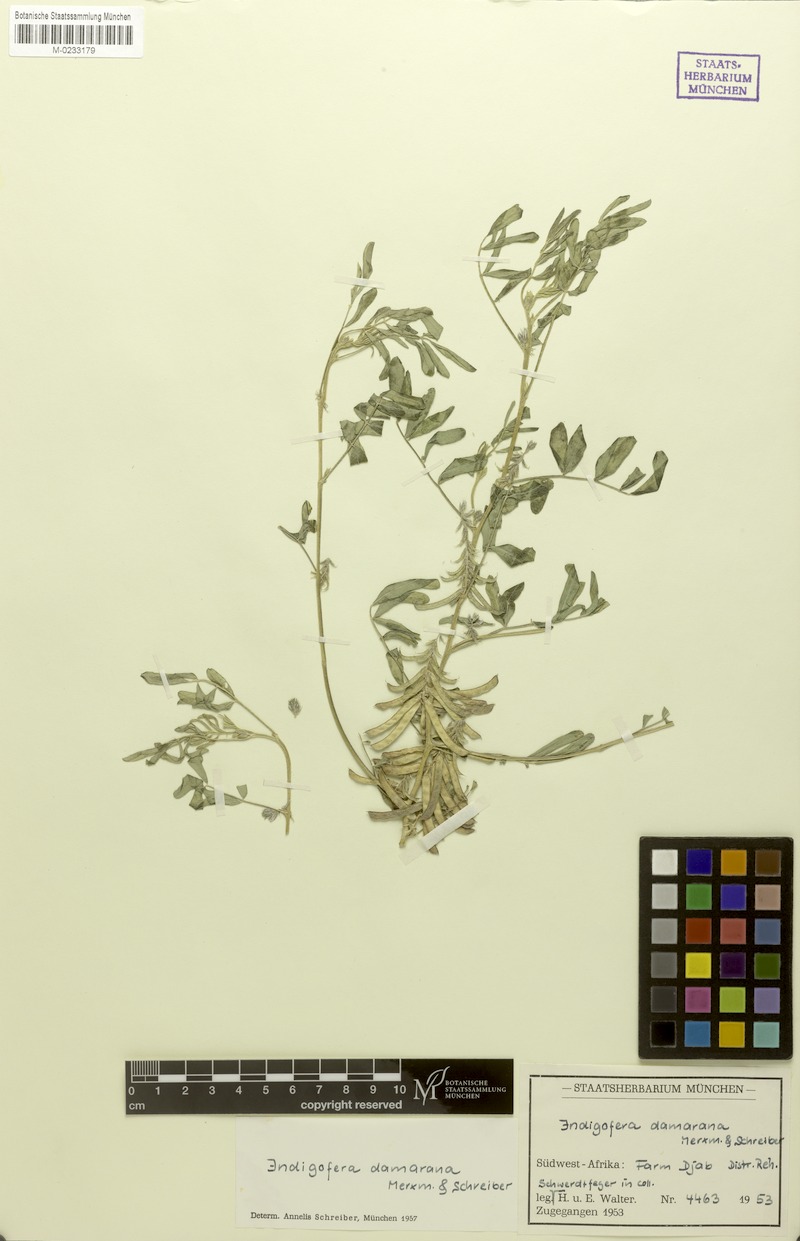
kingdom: Plantae
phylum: Tracheophyta
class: Magnoliopsida
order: Fabales
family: Fabaceae
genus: Indigofera
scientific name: Indigofera damarana
